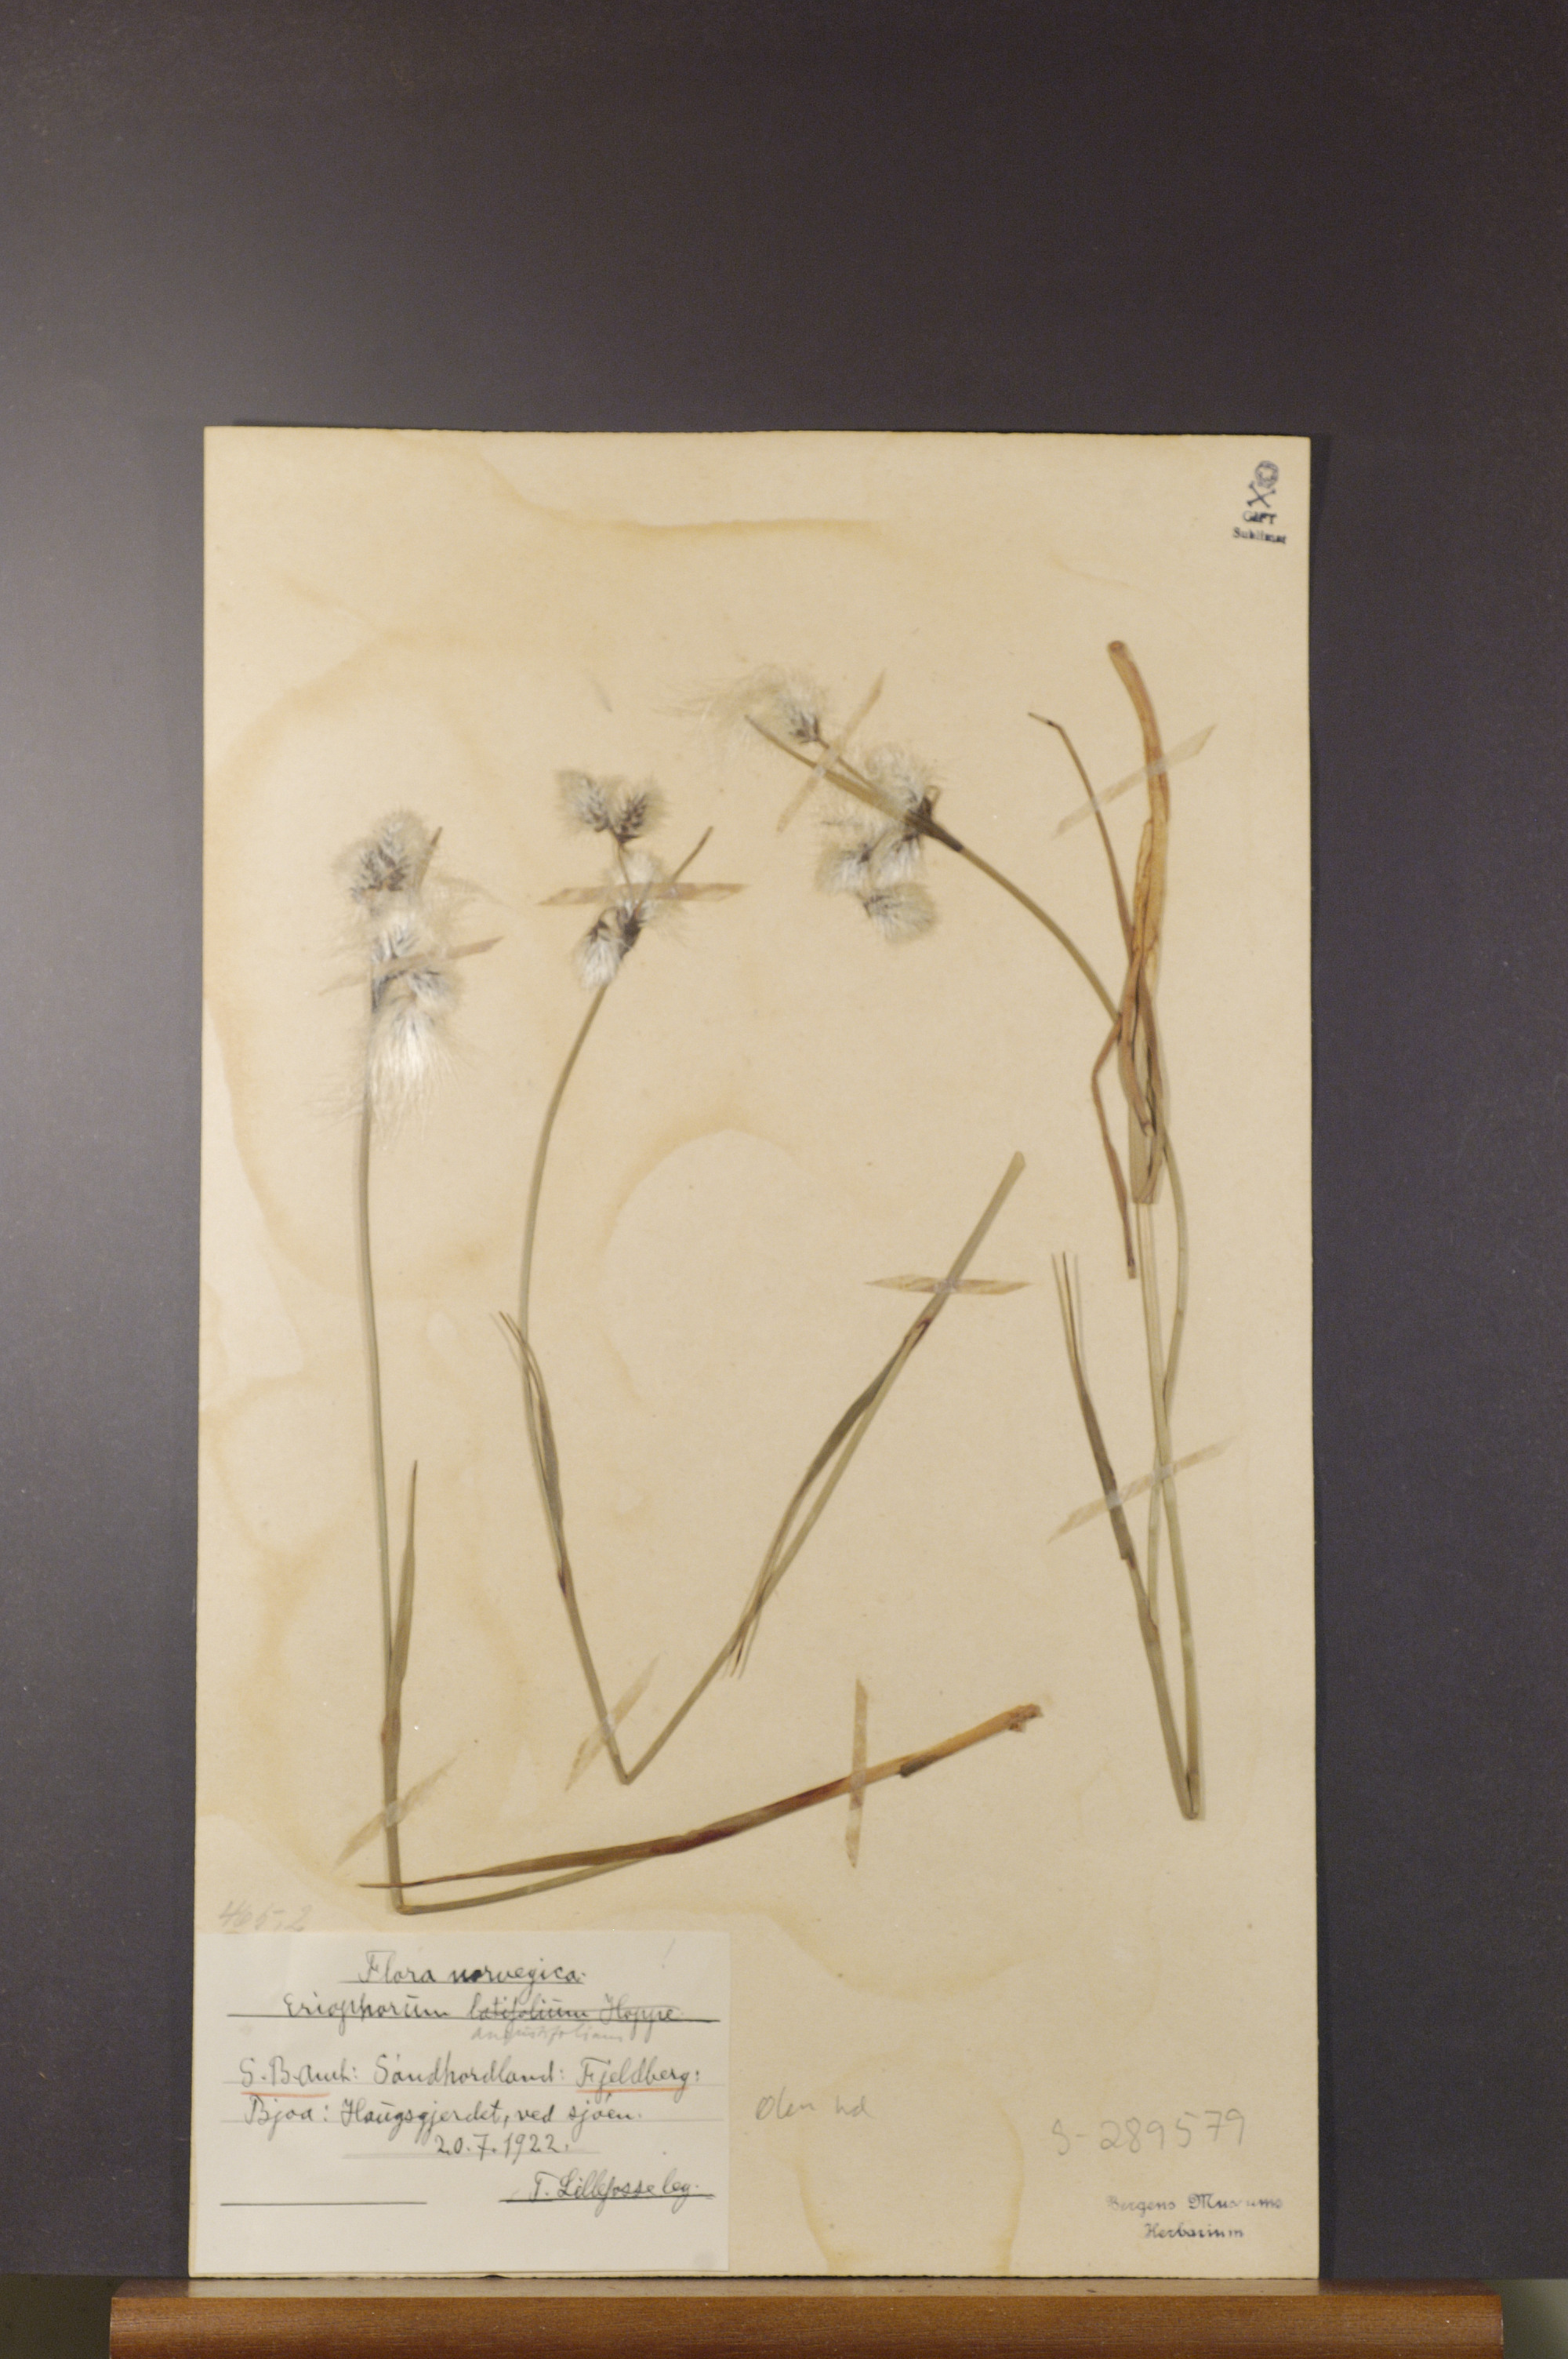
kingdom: Plantae
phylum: Tracheophyta
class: Liliopsida
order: Poales
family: Cyperaceae
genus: Eriophorum
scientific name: Eriophorum angustifolium
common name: Common cottongrass
